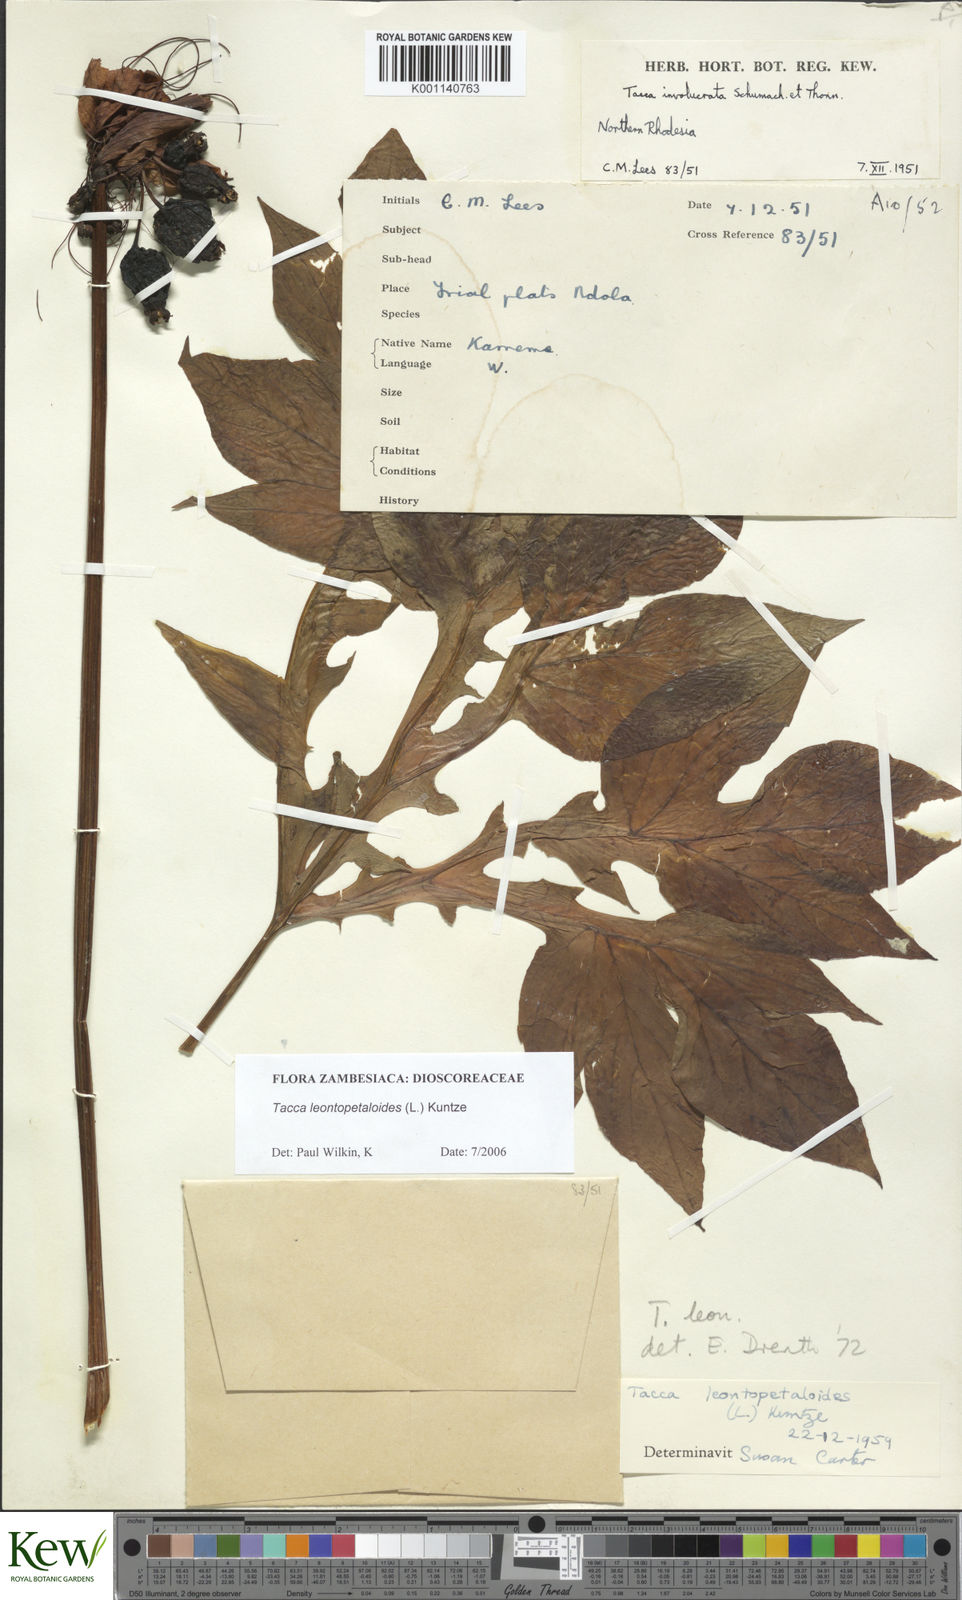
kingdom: Plantae
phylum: Tracheophyta
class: Liliopsida
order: Dioscoreales
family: Dioscoreaceae
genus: Tacca
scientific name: Tacca leontopetaloides
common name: Arrowroot
